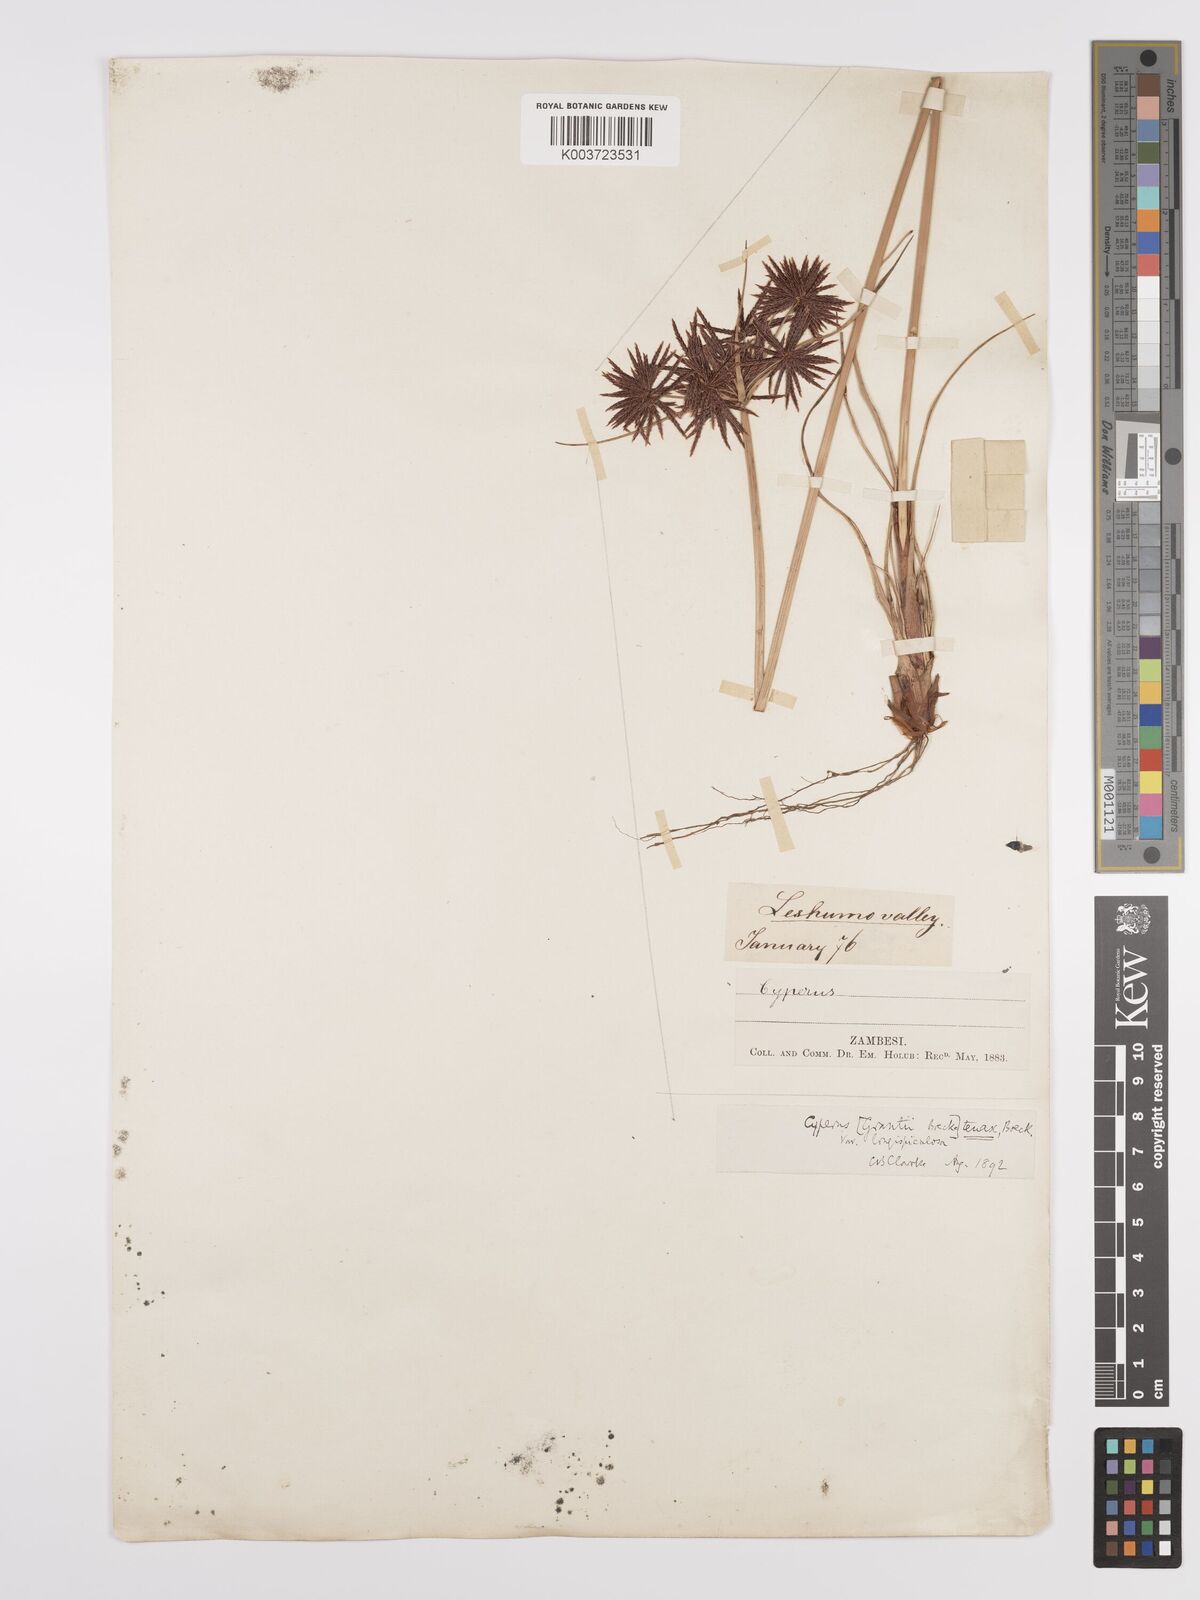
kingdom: Plantae
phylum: Tracheophyta
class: Liliopsida
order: Poales
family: Cyperaceae
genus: Cyperus
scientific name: Cyperus tenax
